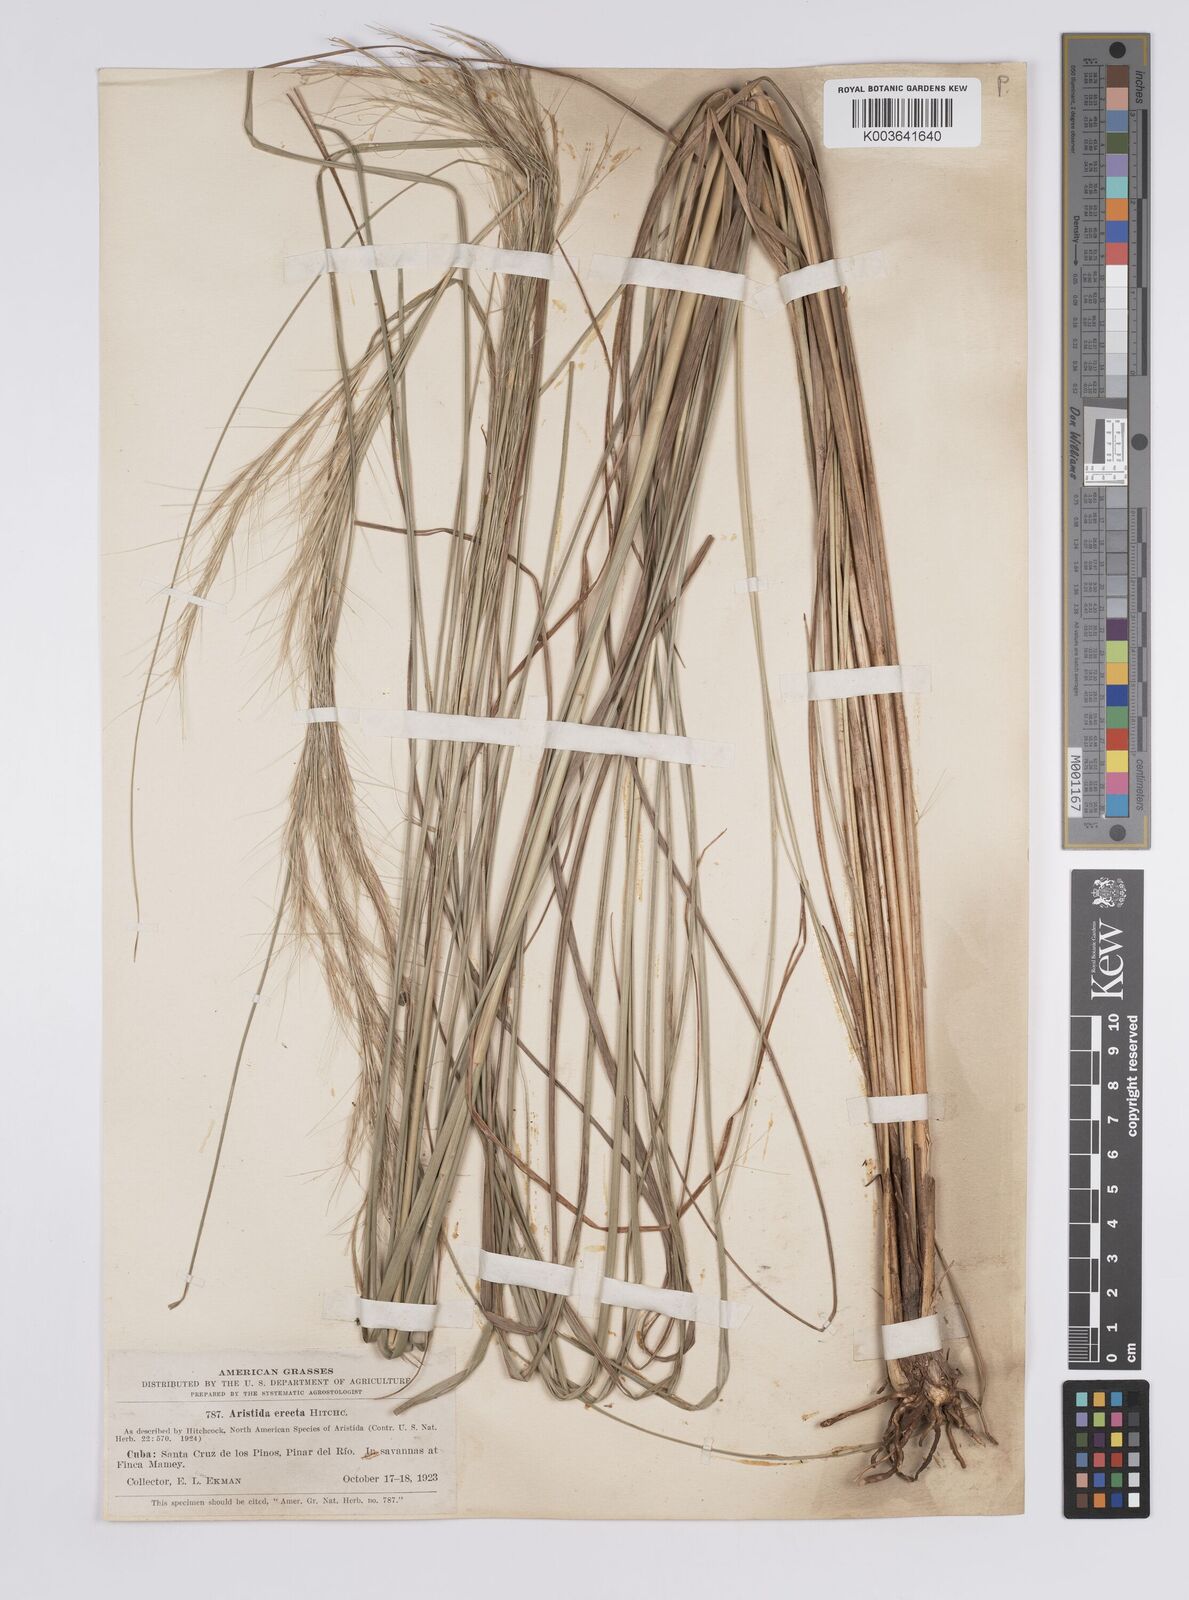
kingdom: Plantae
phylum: Tracheophyta
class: Liliopsida
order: Poales
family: Poaceae
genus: Aristida
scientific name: Aristida erecta
